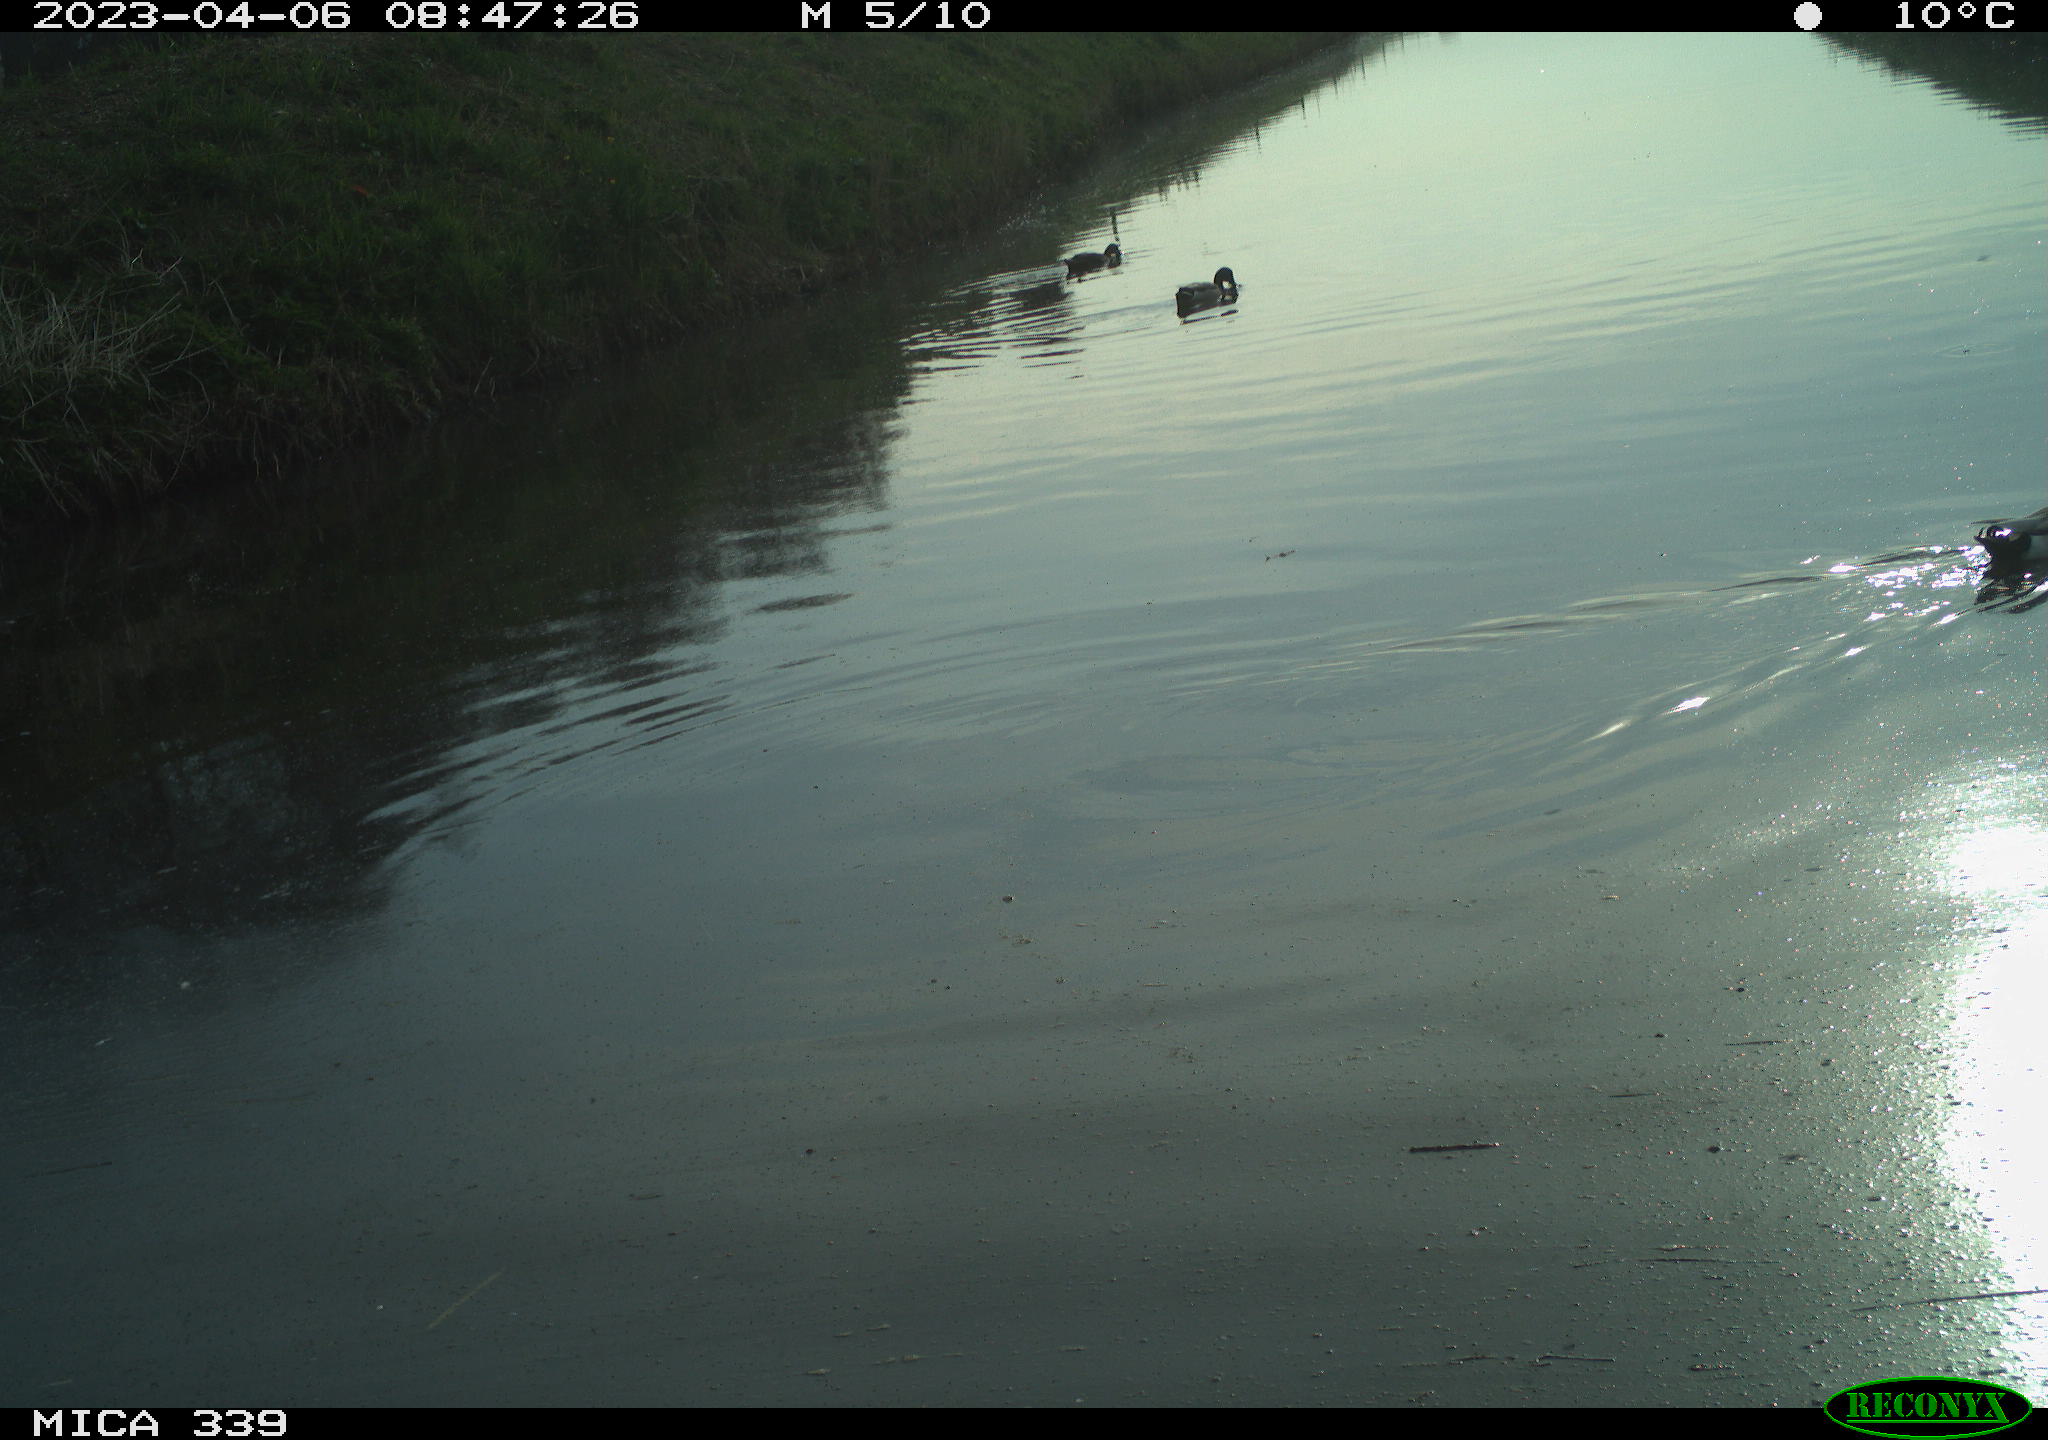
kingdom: Animalia
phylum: Chordata
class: Aves
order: Anseriformes
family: Anatidae
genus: Anas
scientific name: Anas
